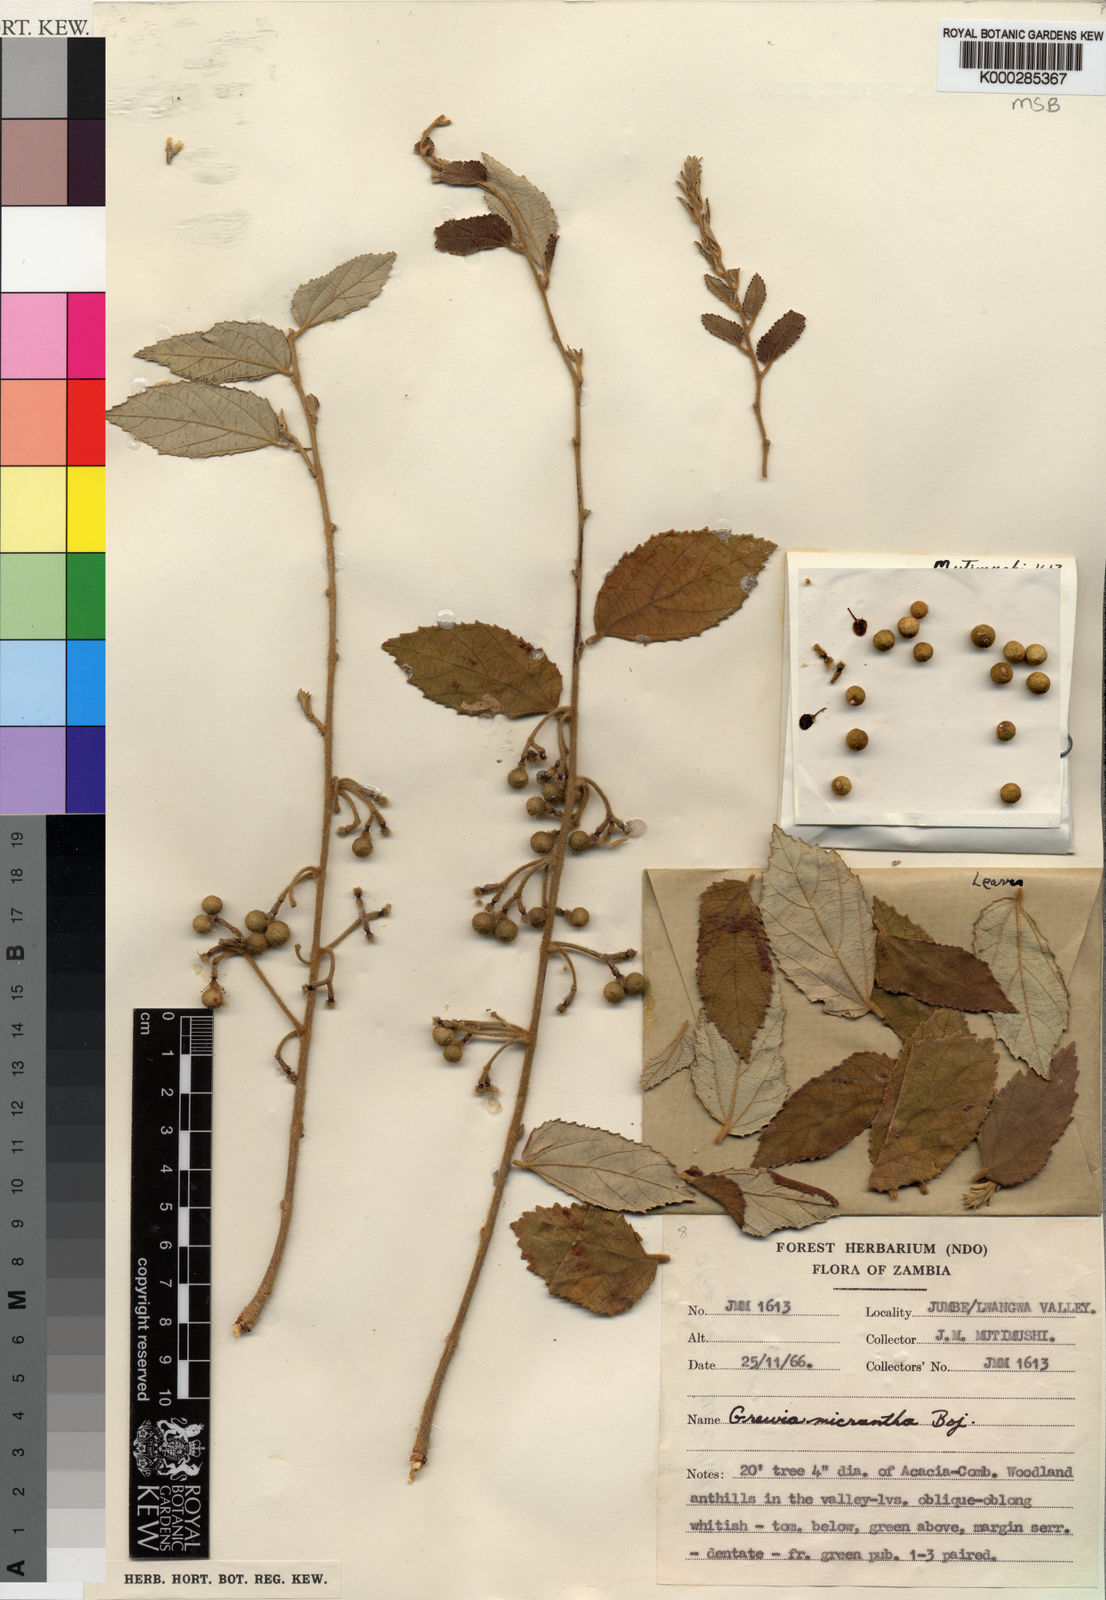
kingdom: Plantae
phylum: Tracheophyta
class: Magnoliopsida
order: Malvales
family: Malvaceae
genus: Grewia
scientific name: Grewia
